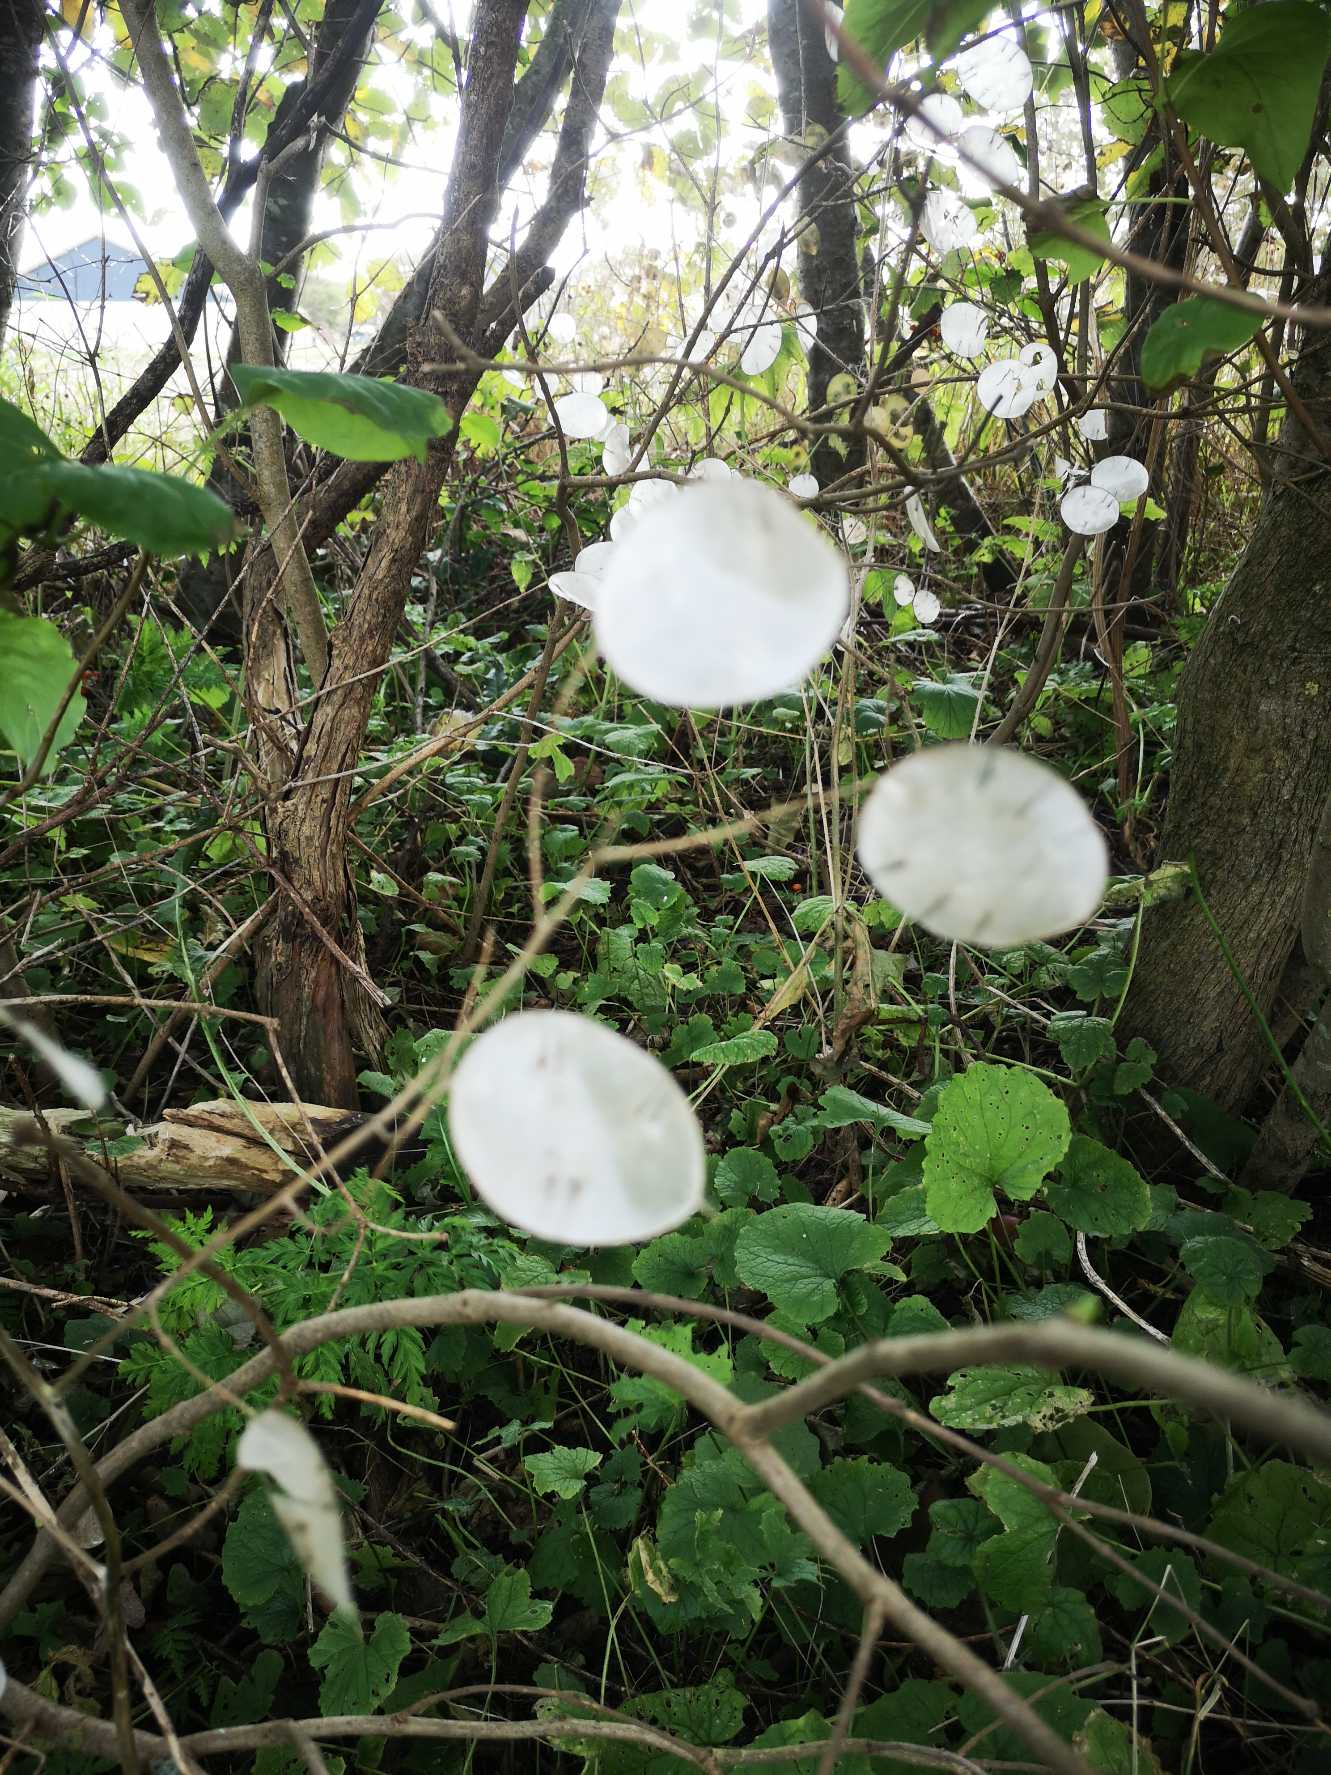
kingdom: Plantae
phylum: Tracheophyta
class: Magnoliopsida
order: Brassicales
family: Brassicaceae
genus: Lunaria
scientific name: Lunaria annua
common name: Judaspenge
